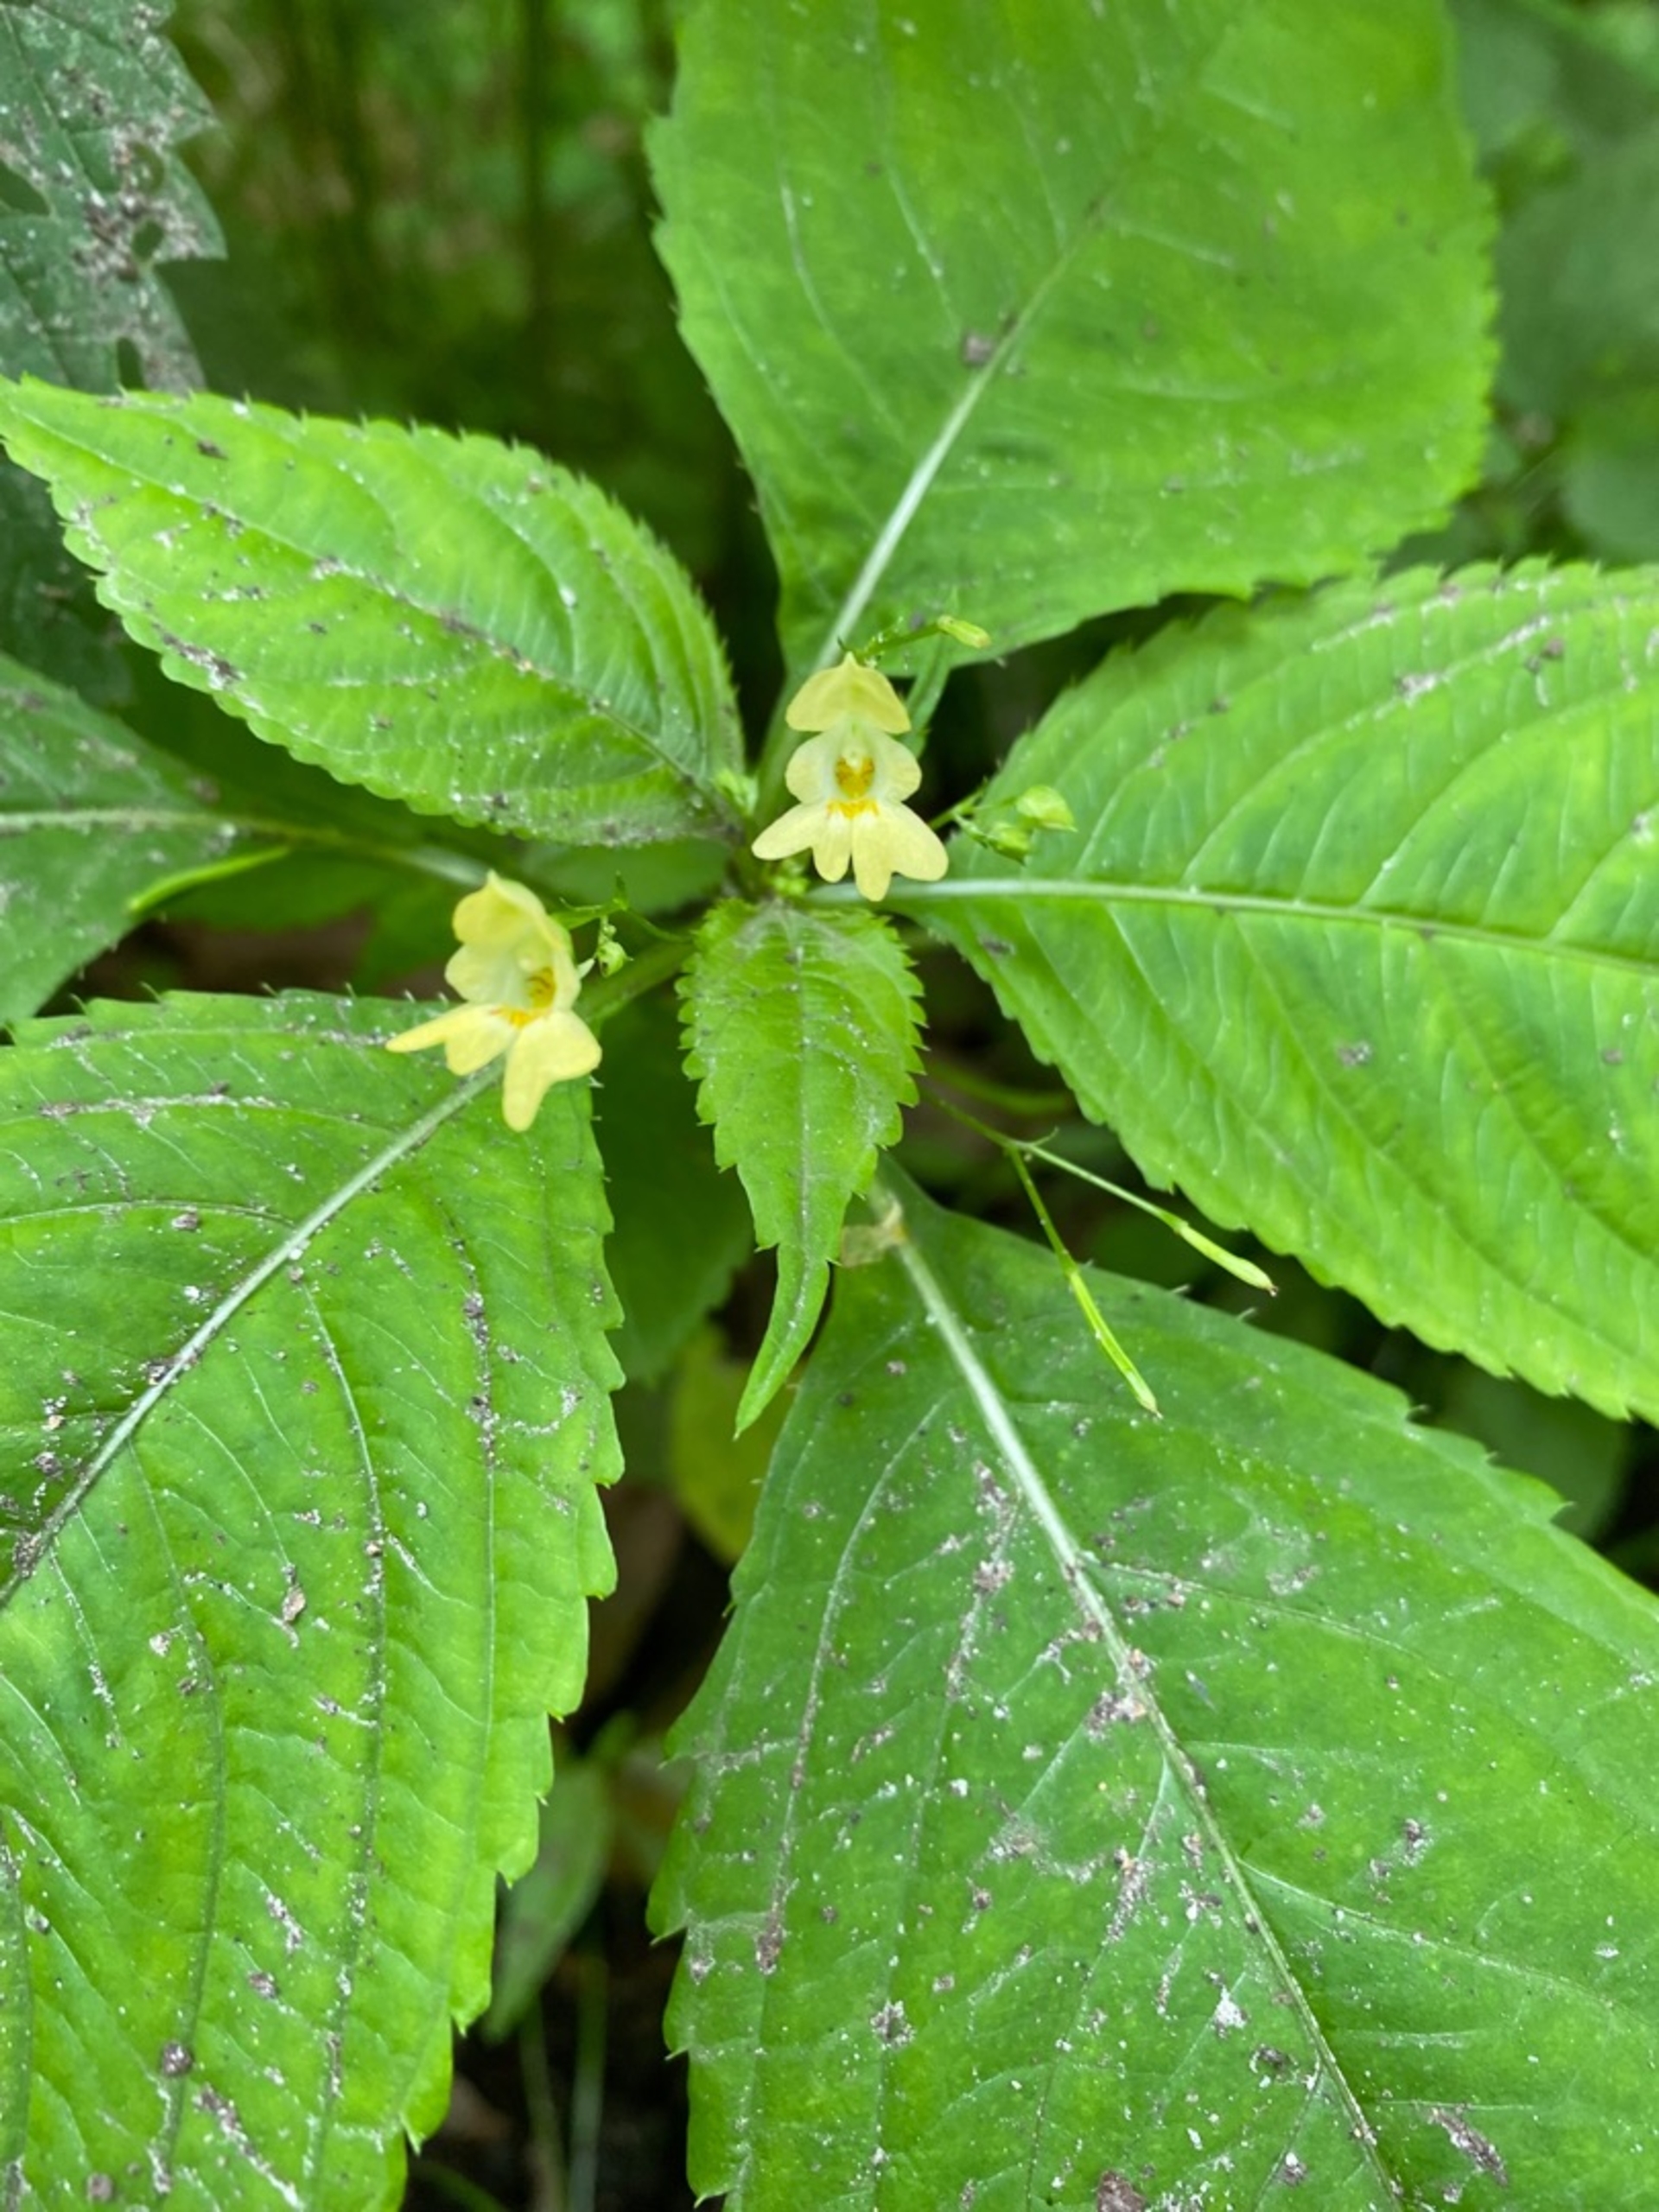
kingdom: Plantae
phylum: Tracheophyta
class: Magnoliopsida
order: Ericales
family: Balsaminaceae
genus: Impatiens
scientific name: Impatiens parviflora
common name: Småblomstret balsamin
